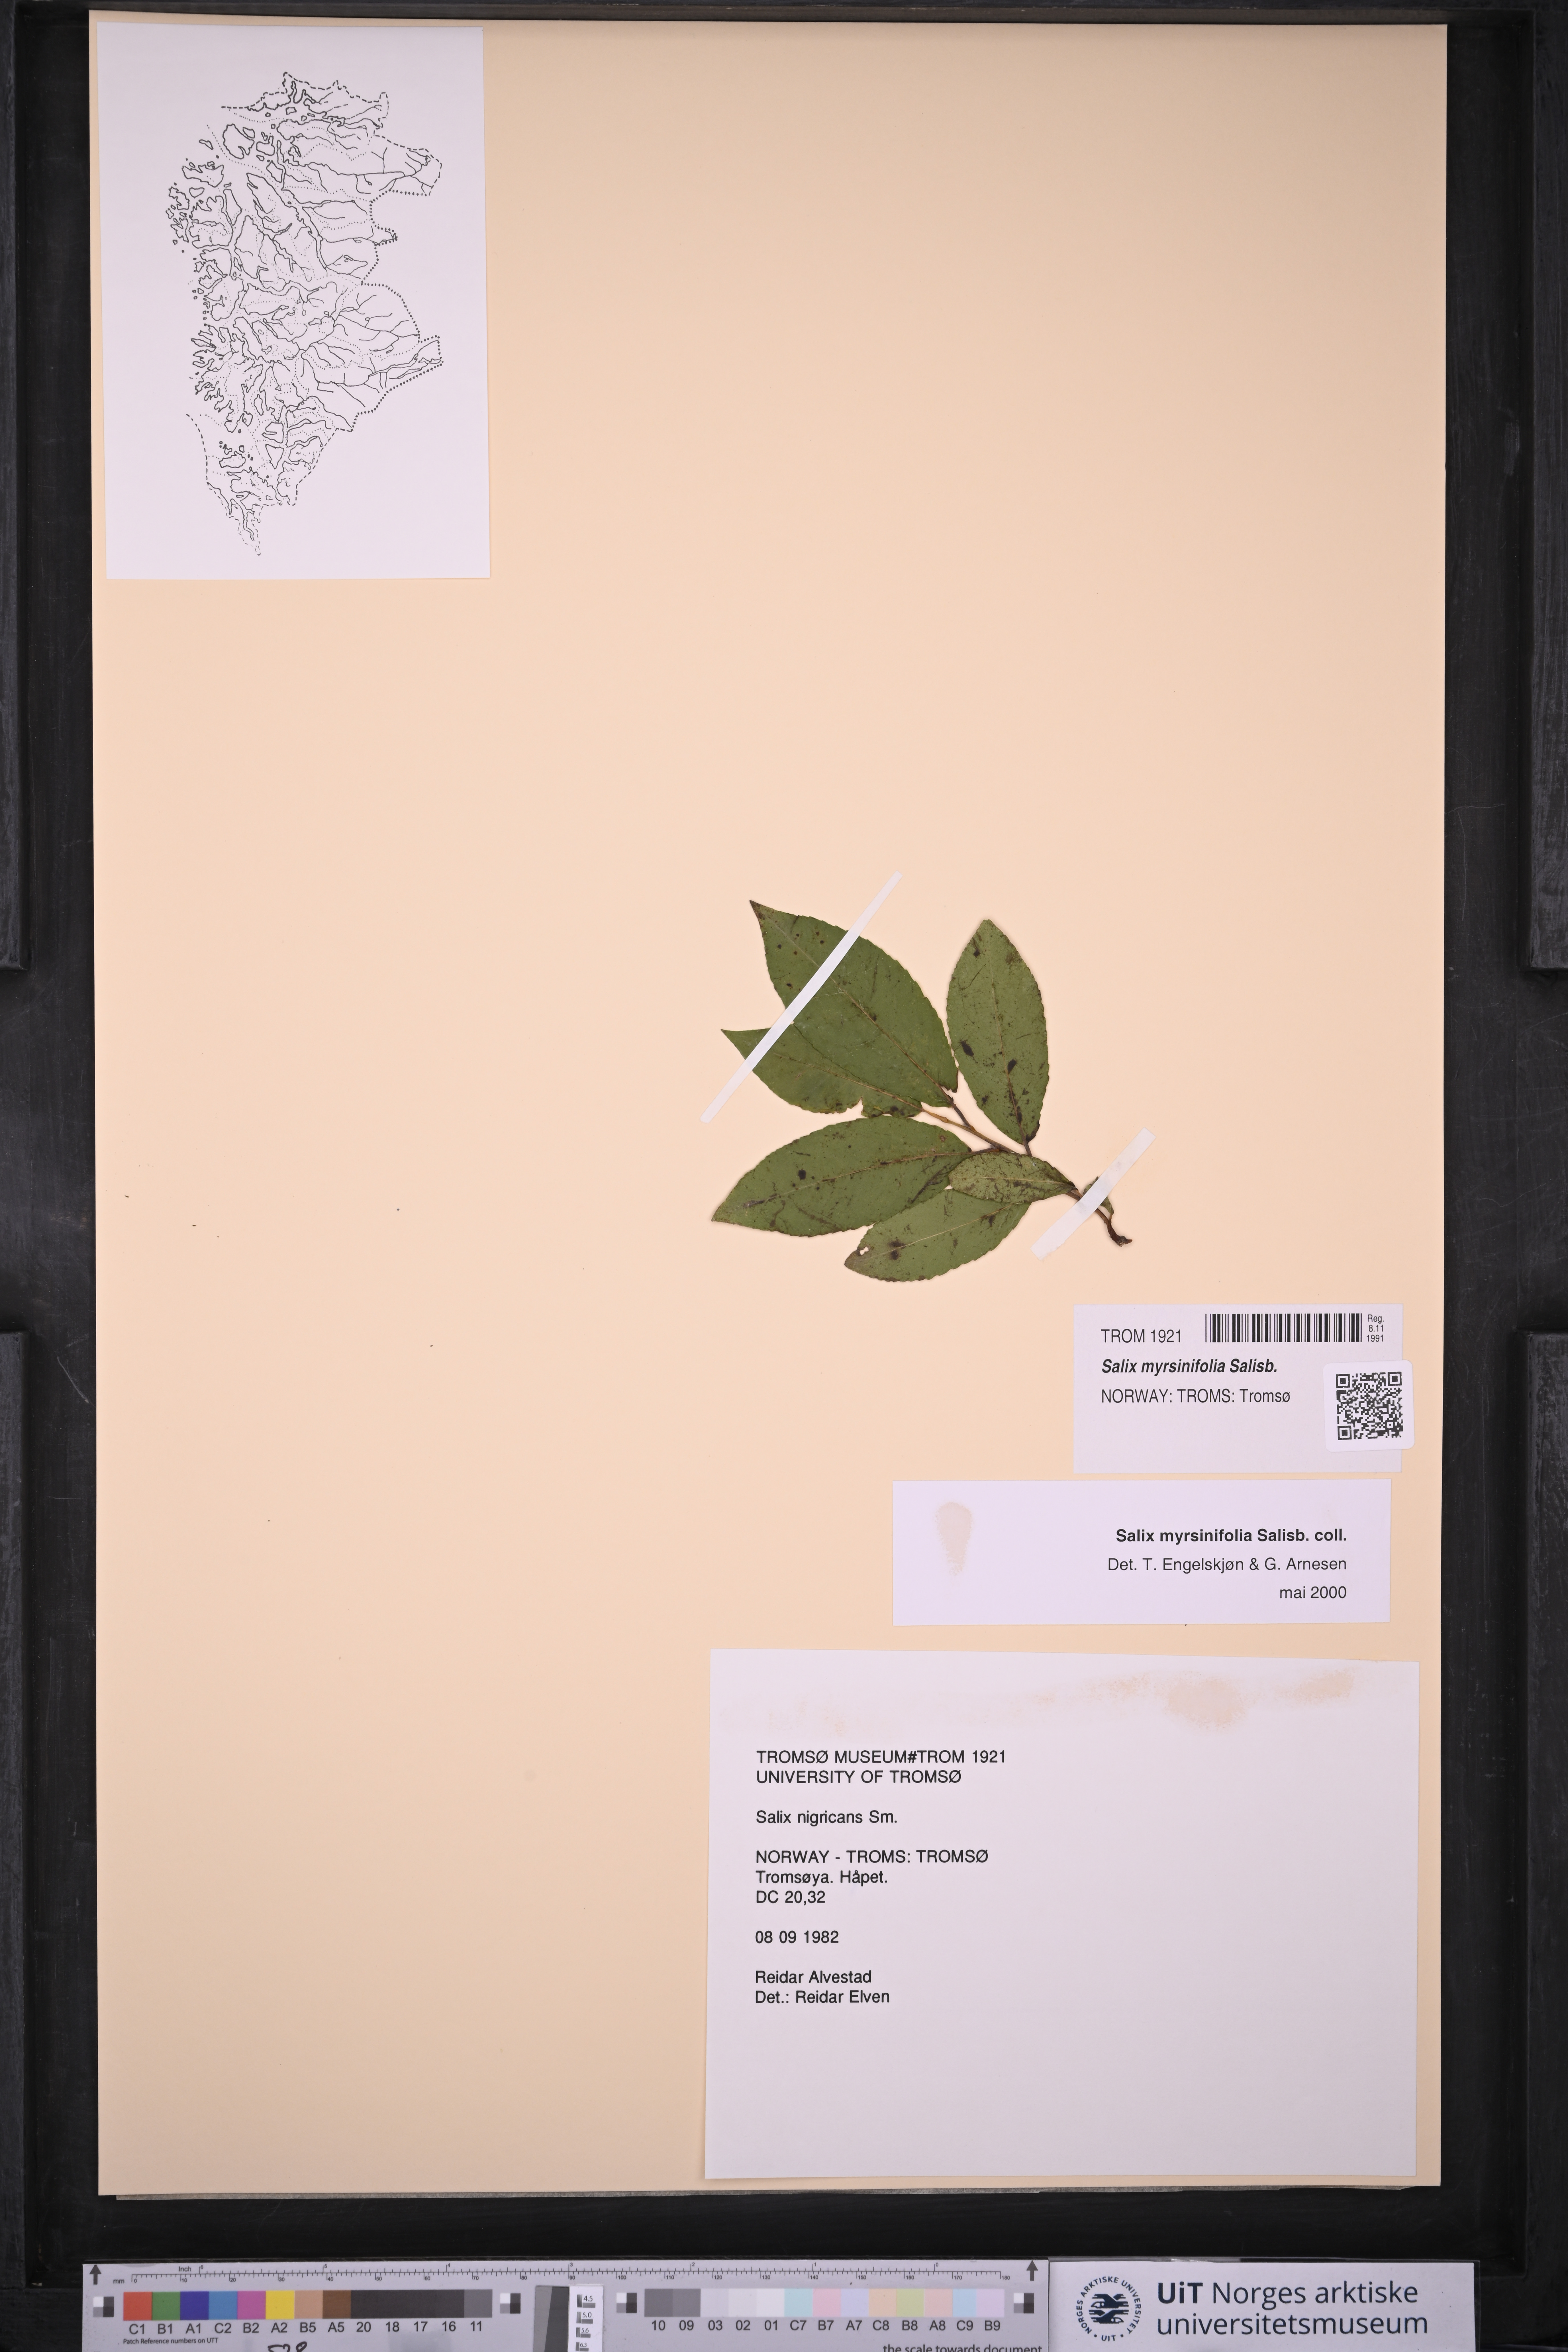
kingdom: Plantae
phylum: Tracheophyta
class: Magnoliopsida
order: Malpighiales
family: Salicaceae
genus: Salix
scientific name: Salix myrsinifolia
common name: Dark-leaved willow
